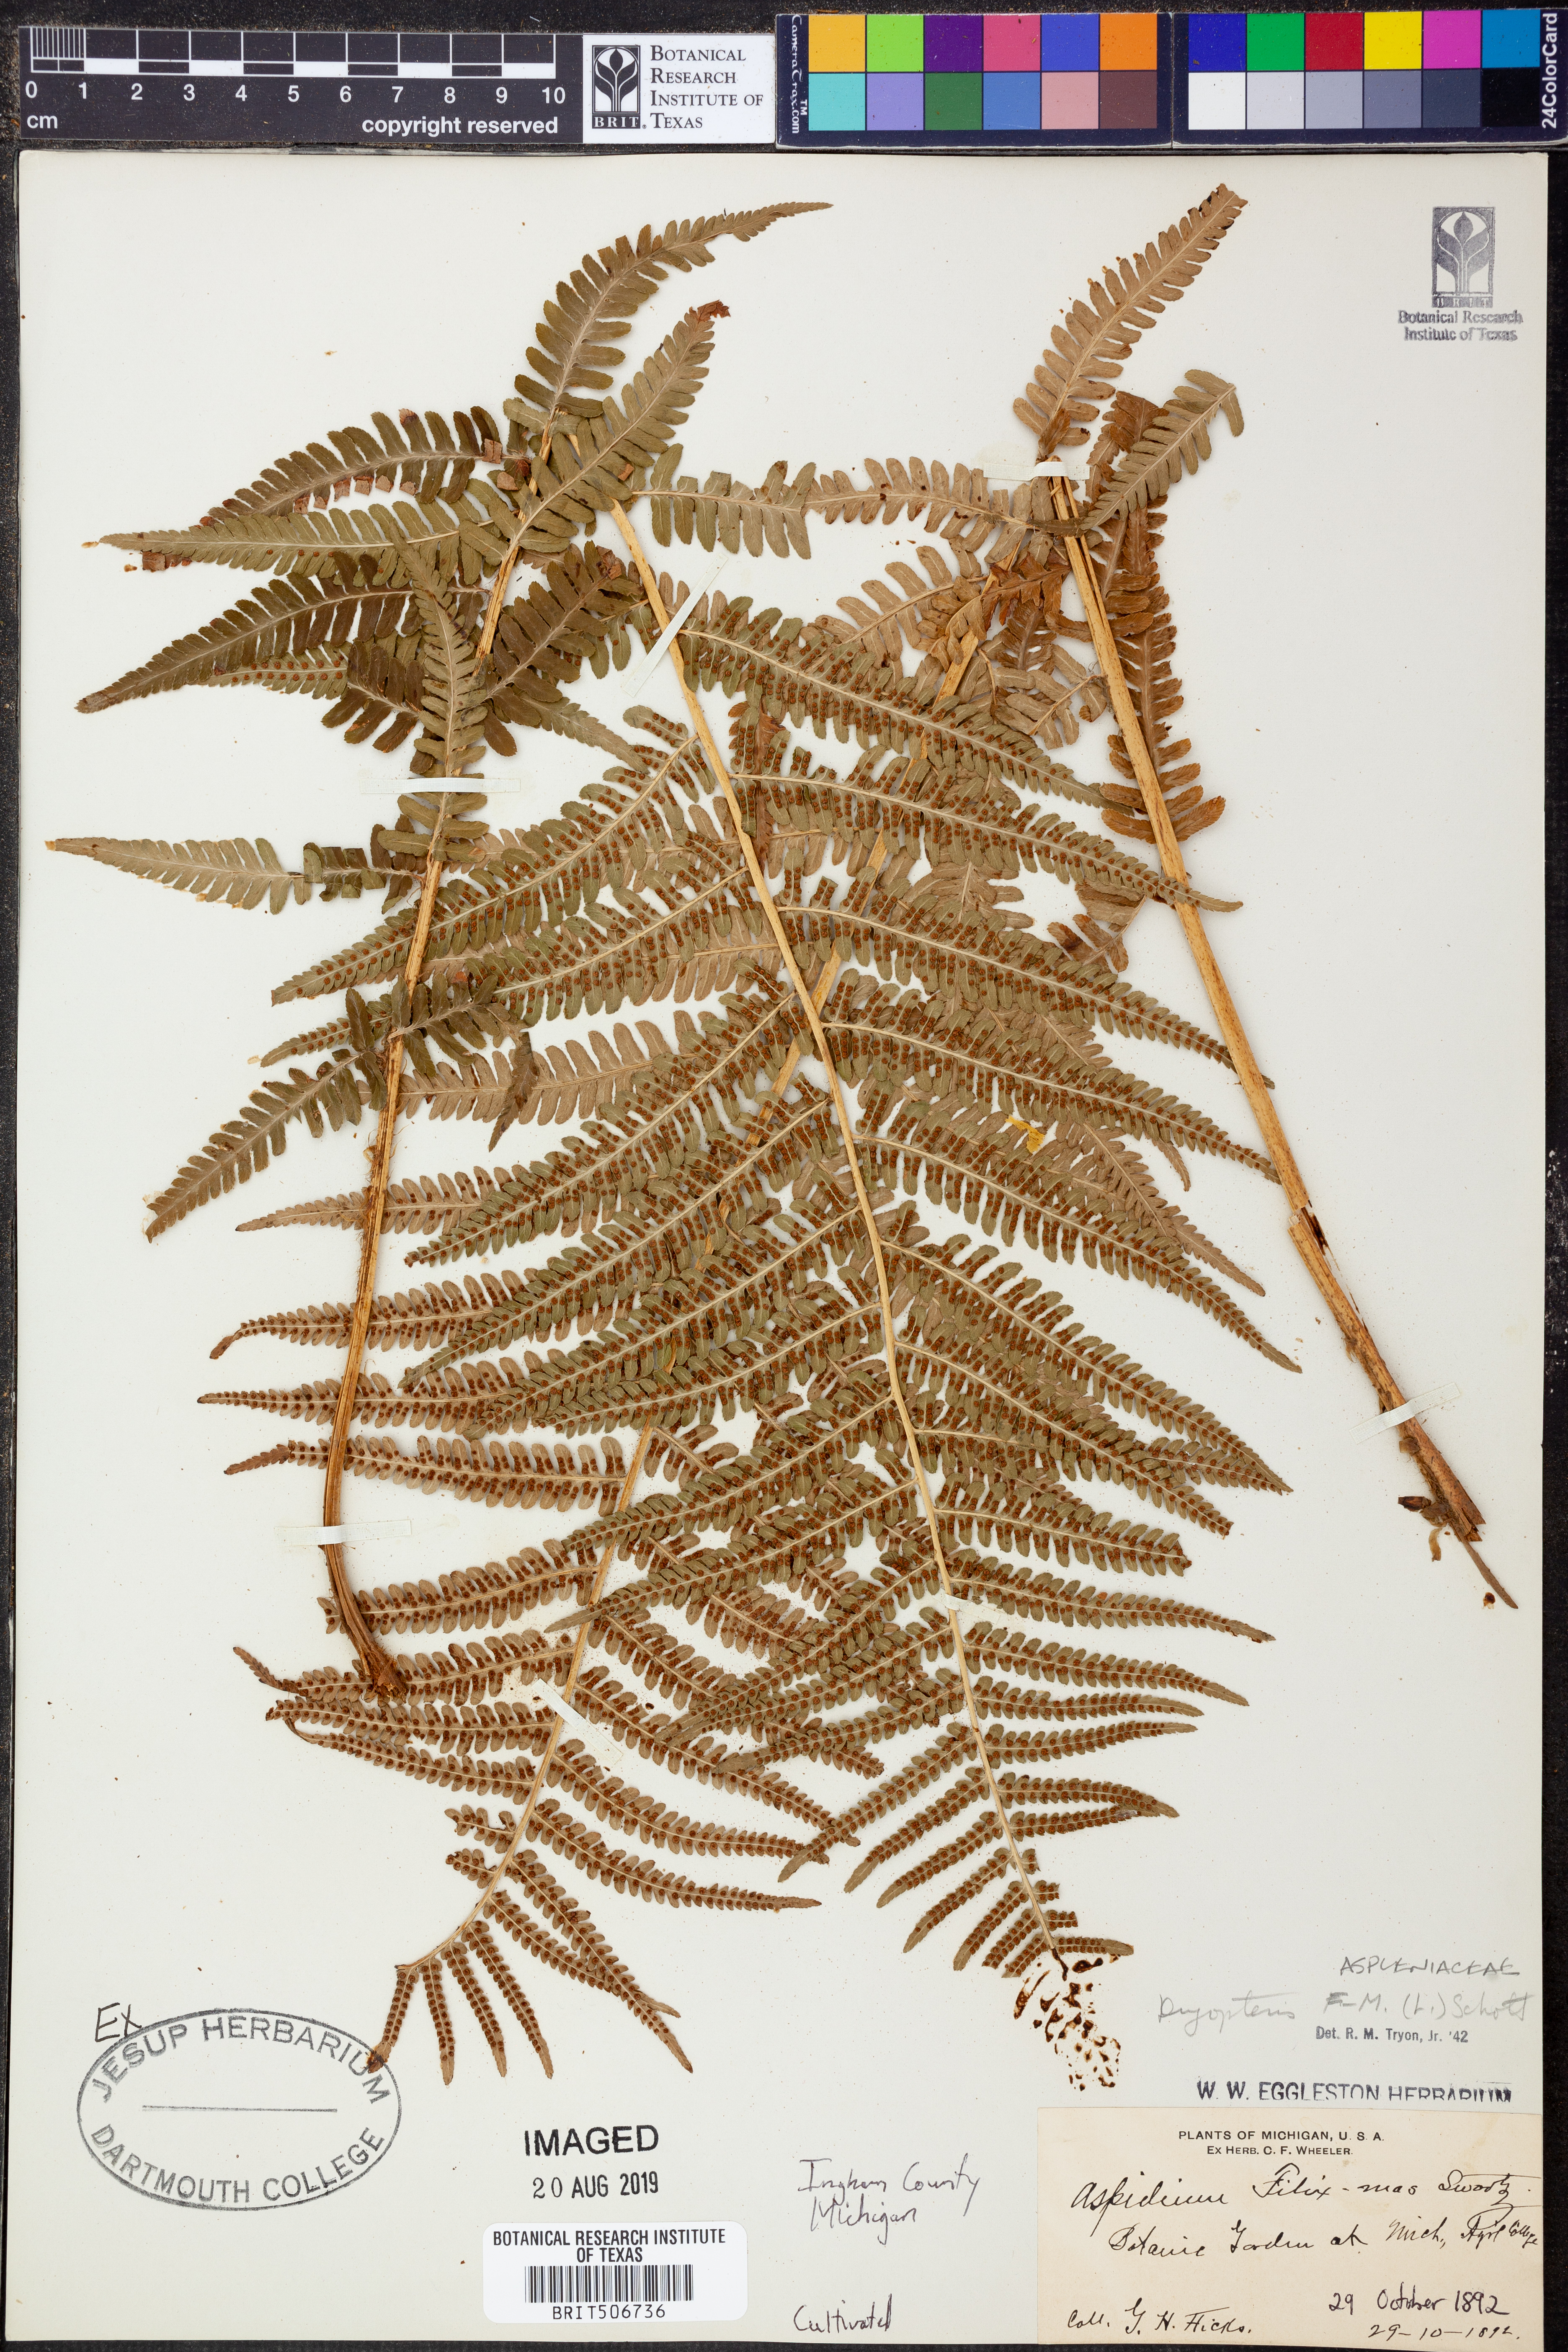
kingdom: Plantae
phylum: Tracheophyta
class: Polypodiopsida
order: Polypodiales
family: Dryopteridaceae
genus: Dryopteris
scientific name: Dryopteris filix-mas
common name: Male fern
